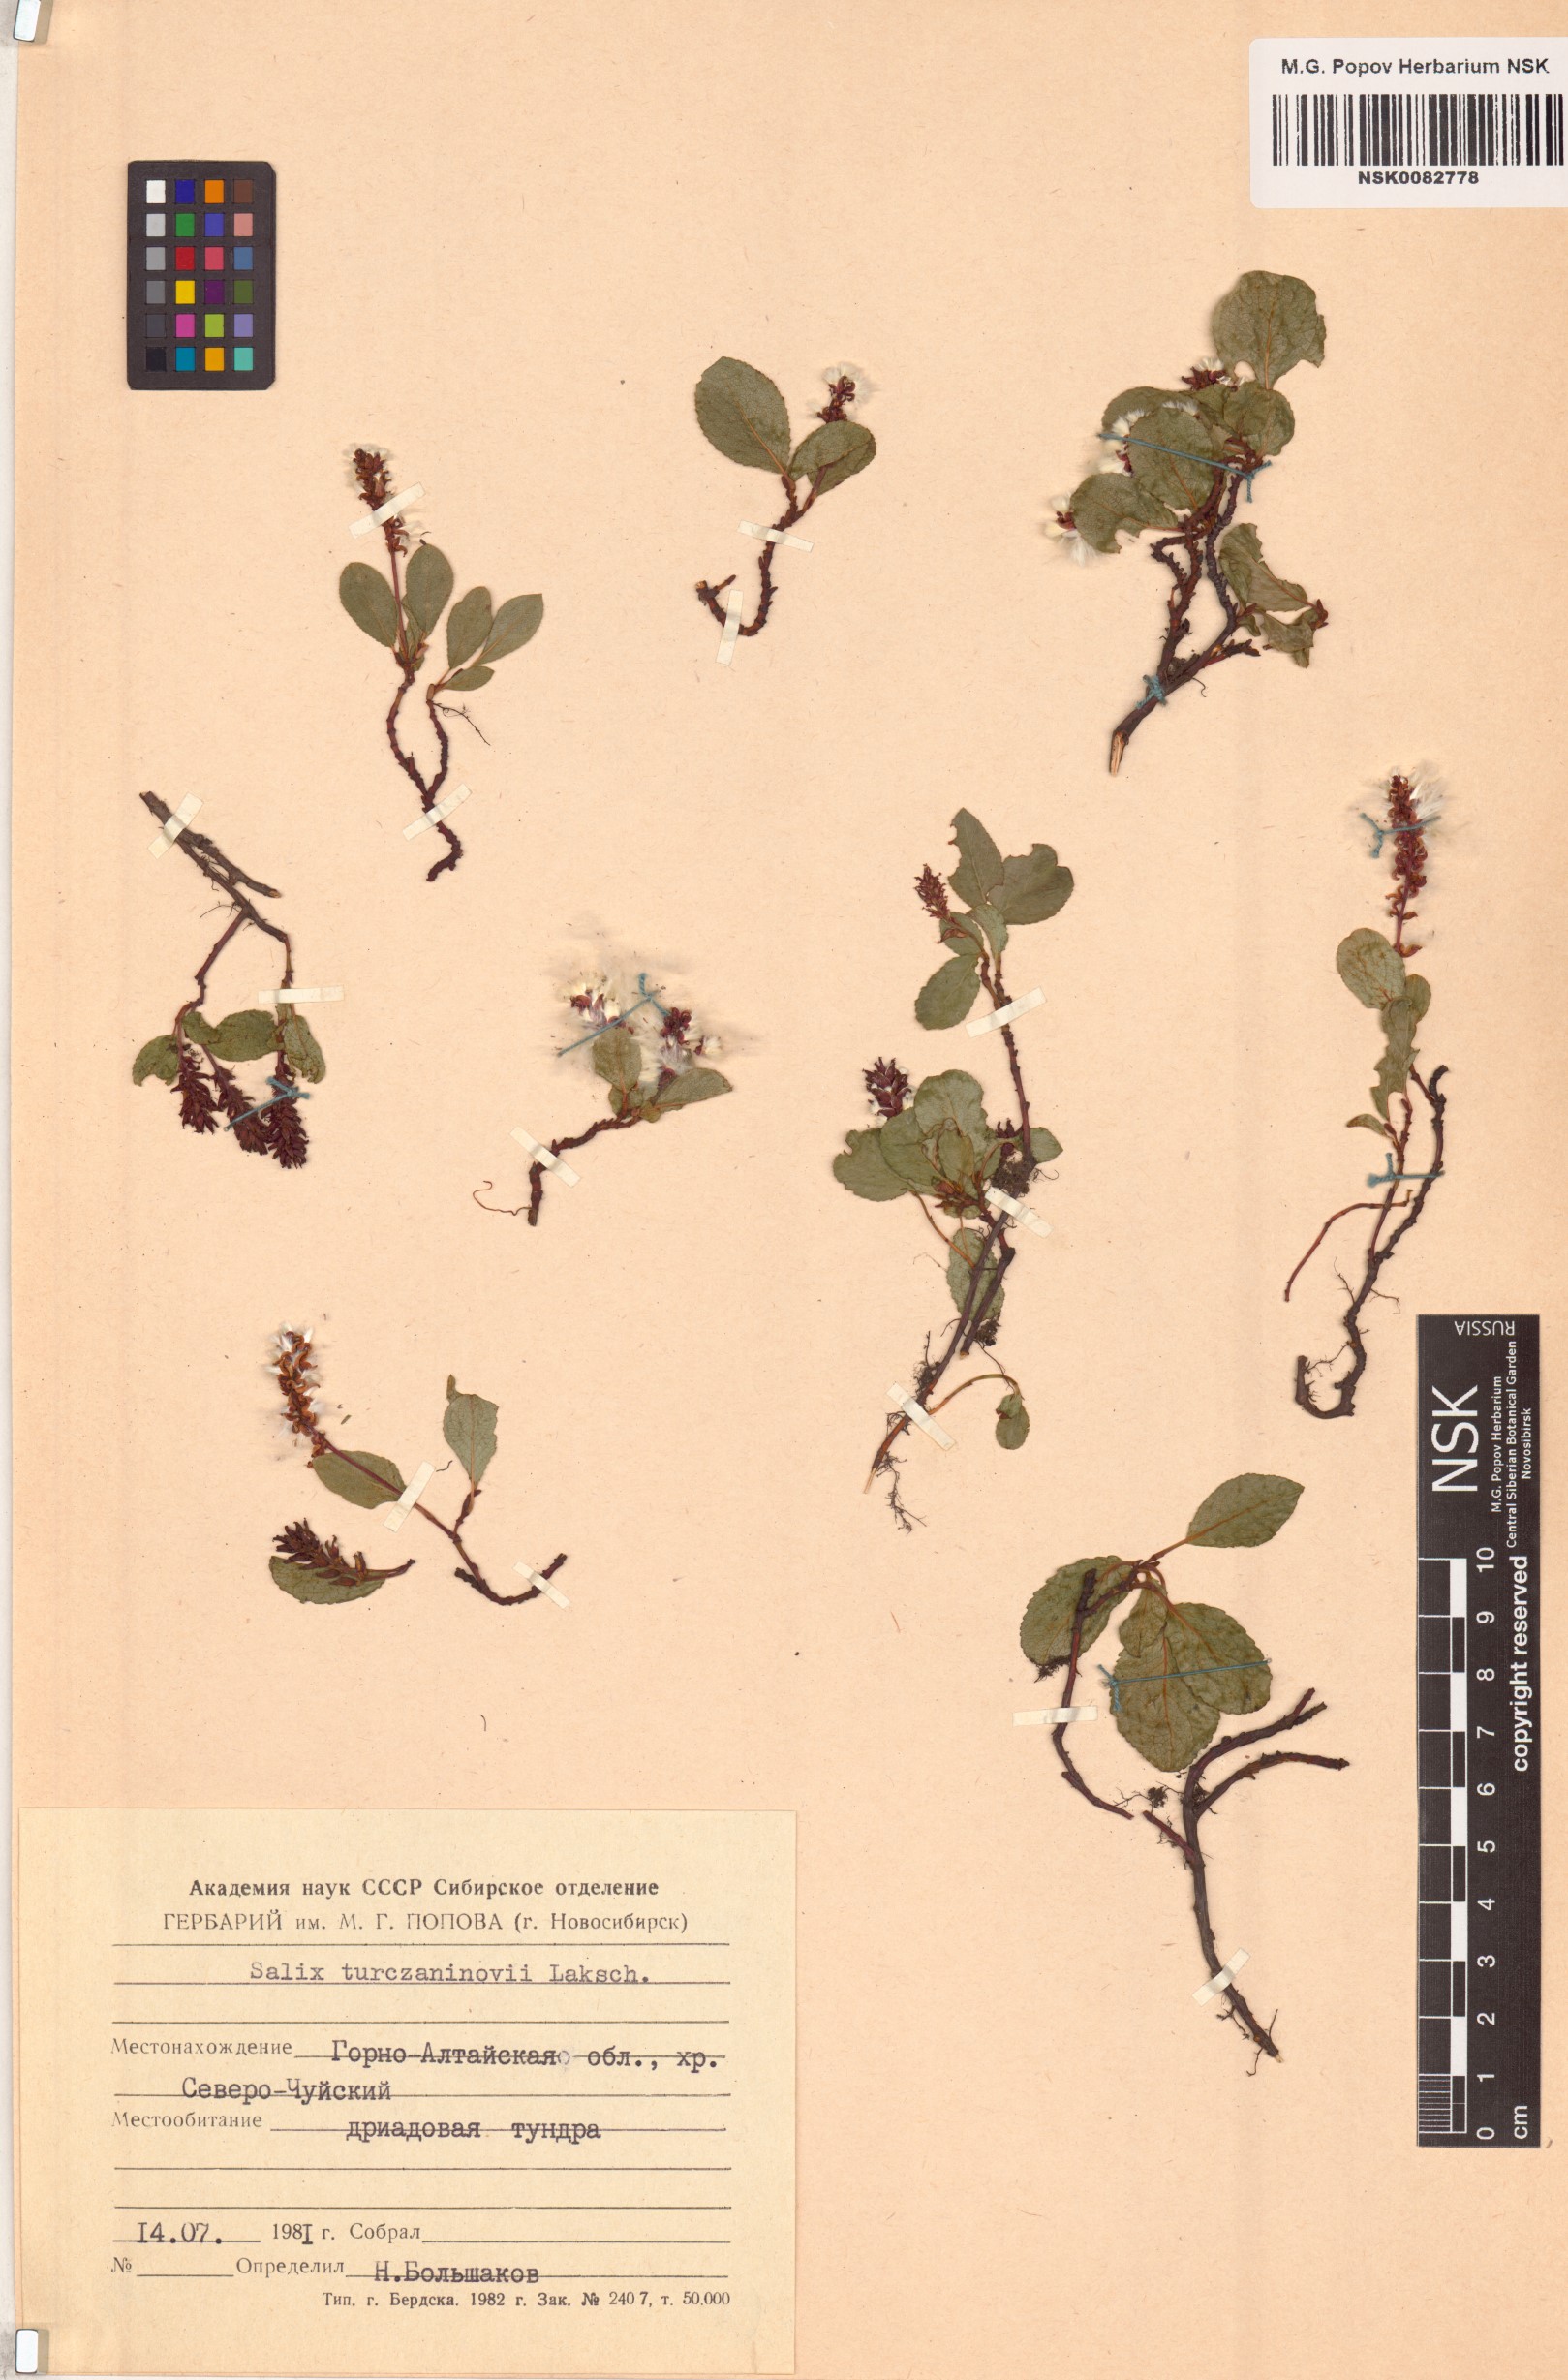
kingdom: Plantae
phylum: Tracheophyta
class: Magnoliopsida
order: Malpighiales
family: Salicaceae
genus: Salix
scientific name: Salix turczaninowii
